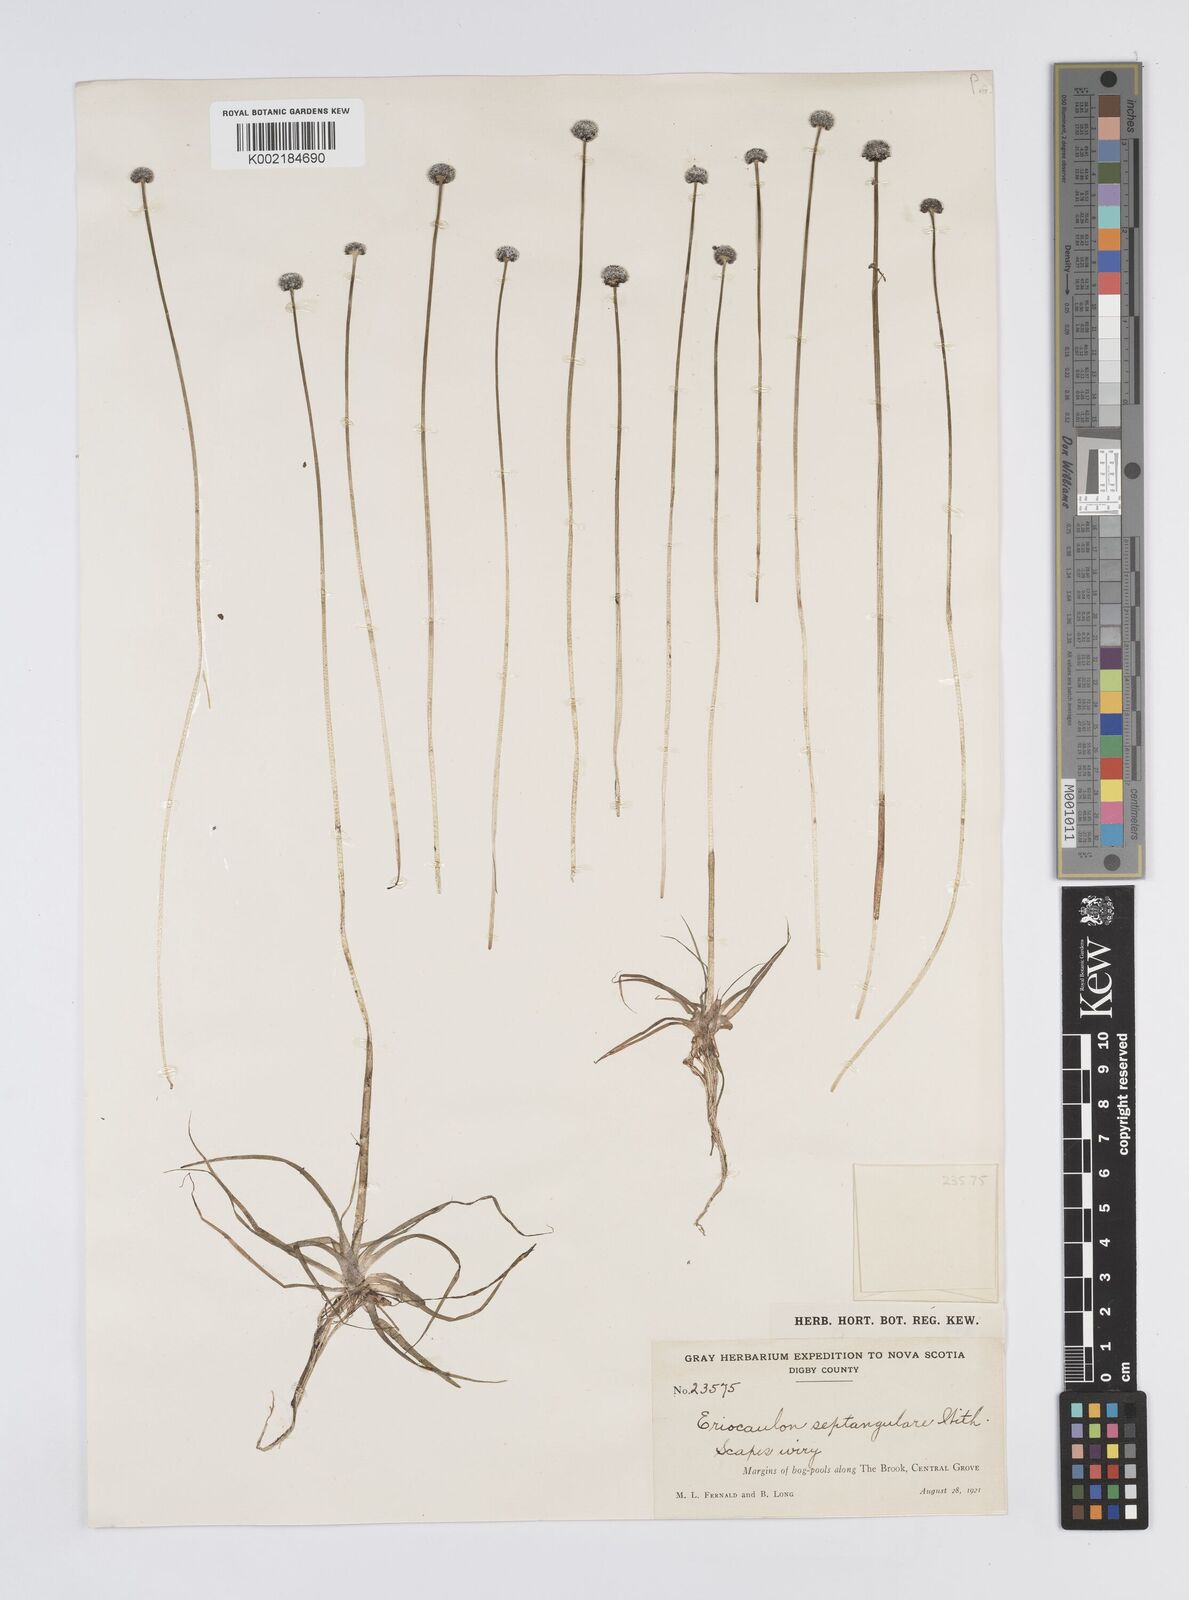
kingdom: Plantae
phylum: Tracheophyta
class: Liliopsida
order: Poales
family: Eriocaulaceae
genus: Eriocaulon
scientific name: Eriocaulon aquaticum
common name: Pipewort
